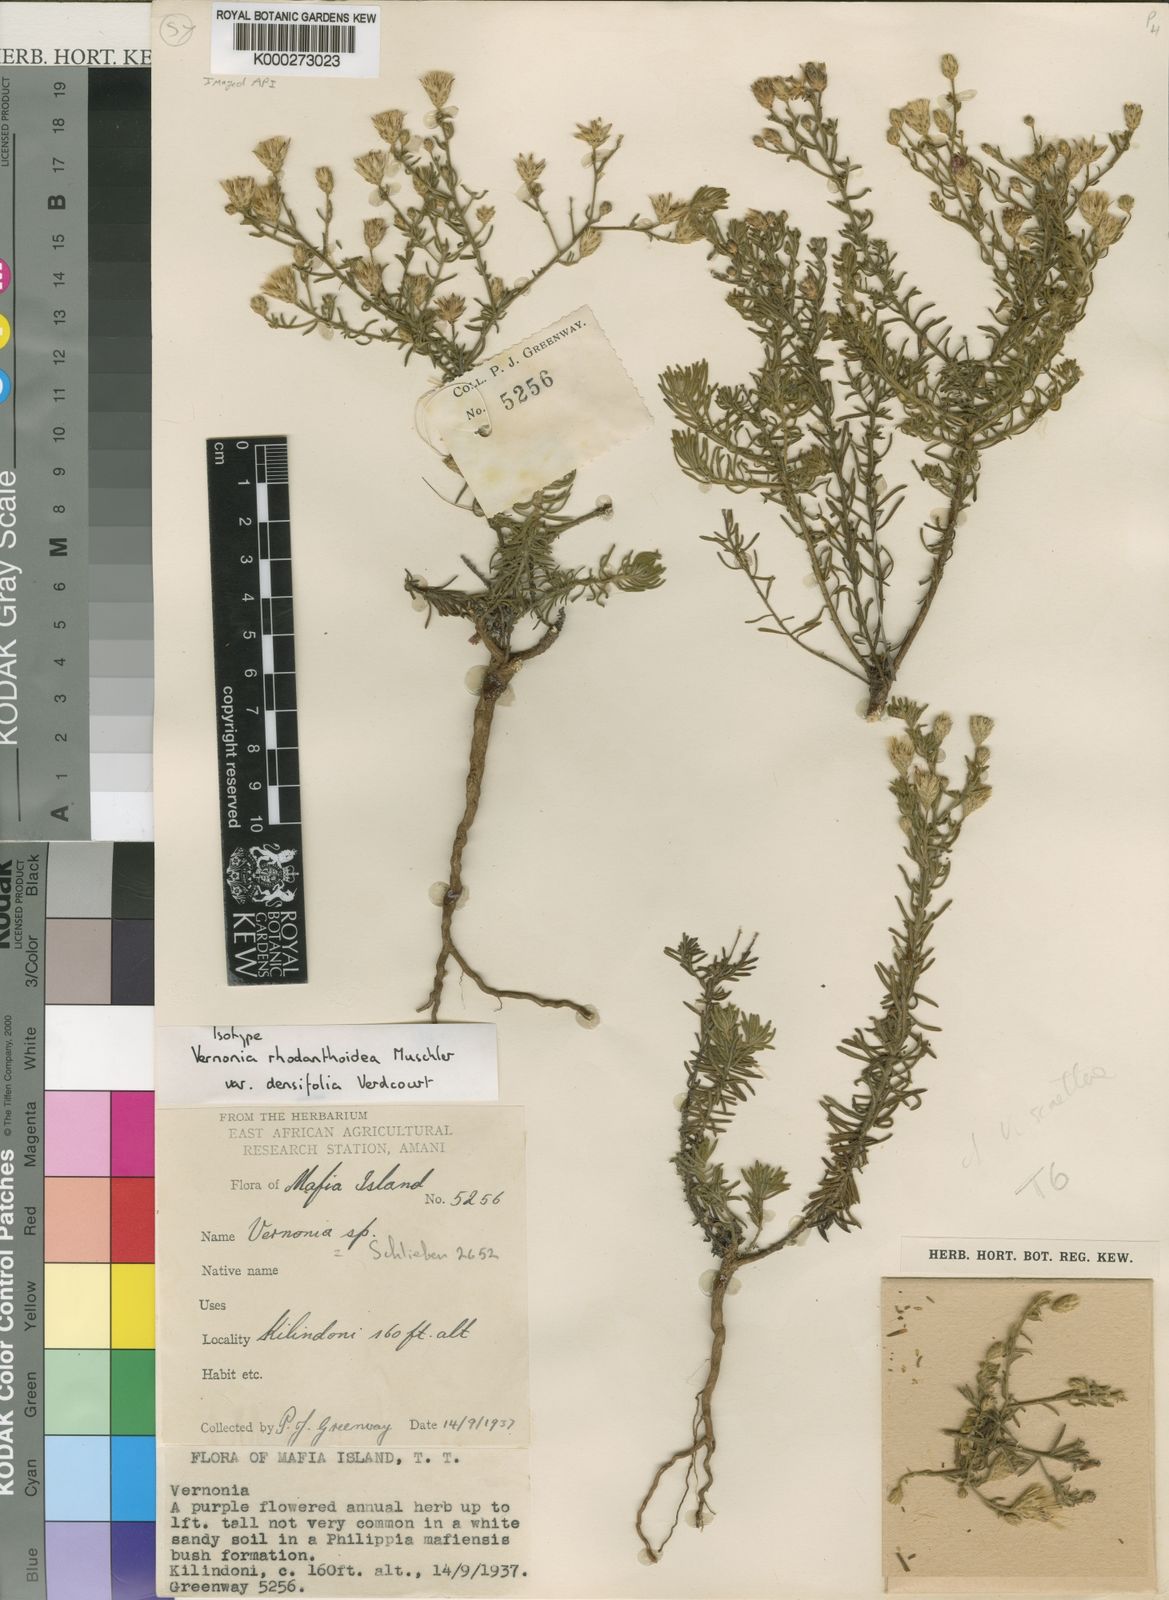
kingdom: Plantae
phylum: Tracheophyta
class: Magnoliopsida
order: Asterales
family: Asteraceae
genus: Crystallopollen
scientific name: Crystallopollen angustifolium
